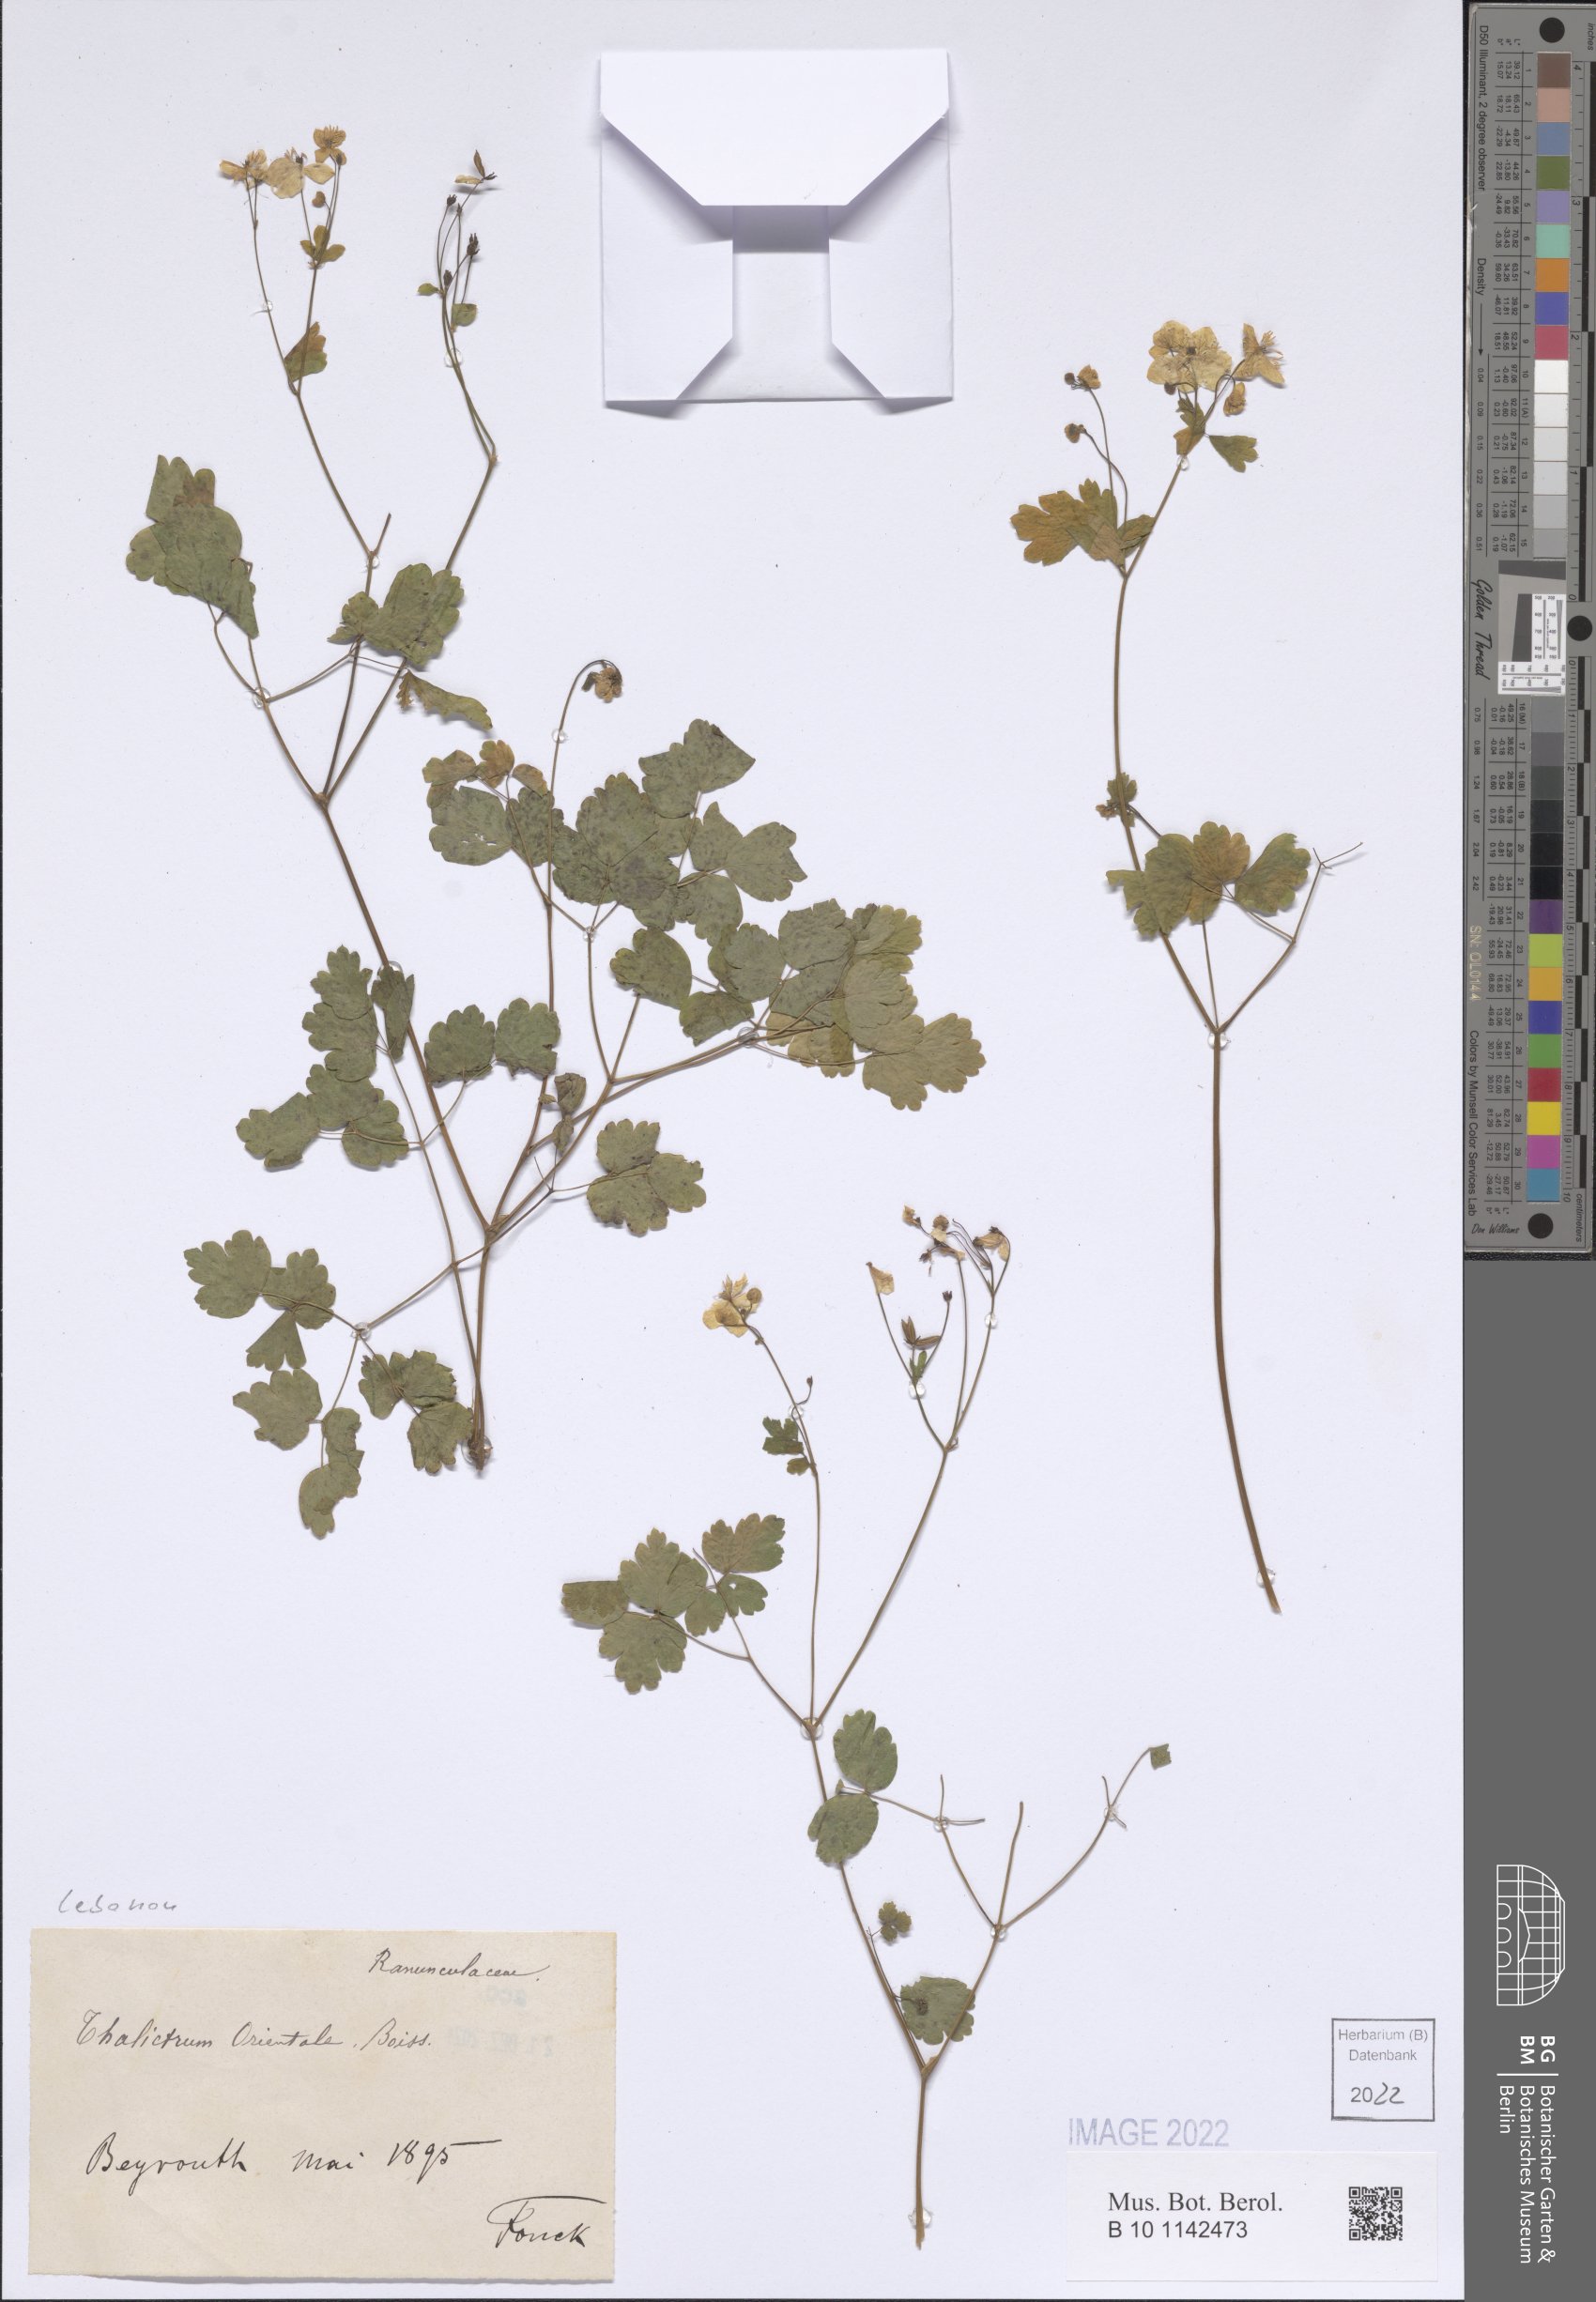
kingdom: Plantae
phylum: Tracheophyta
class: Magnoliopsida
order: Ranunculales
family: Ranunculaceae
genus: Thalictrum
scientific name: Thalictrum orientale
